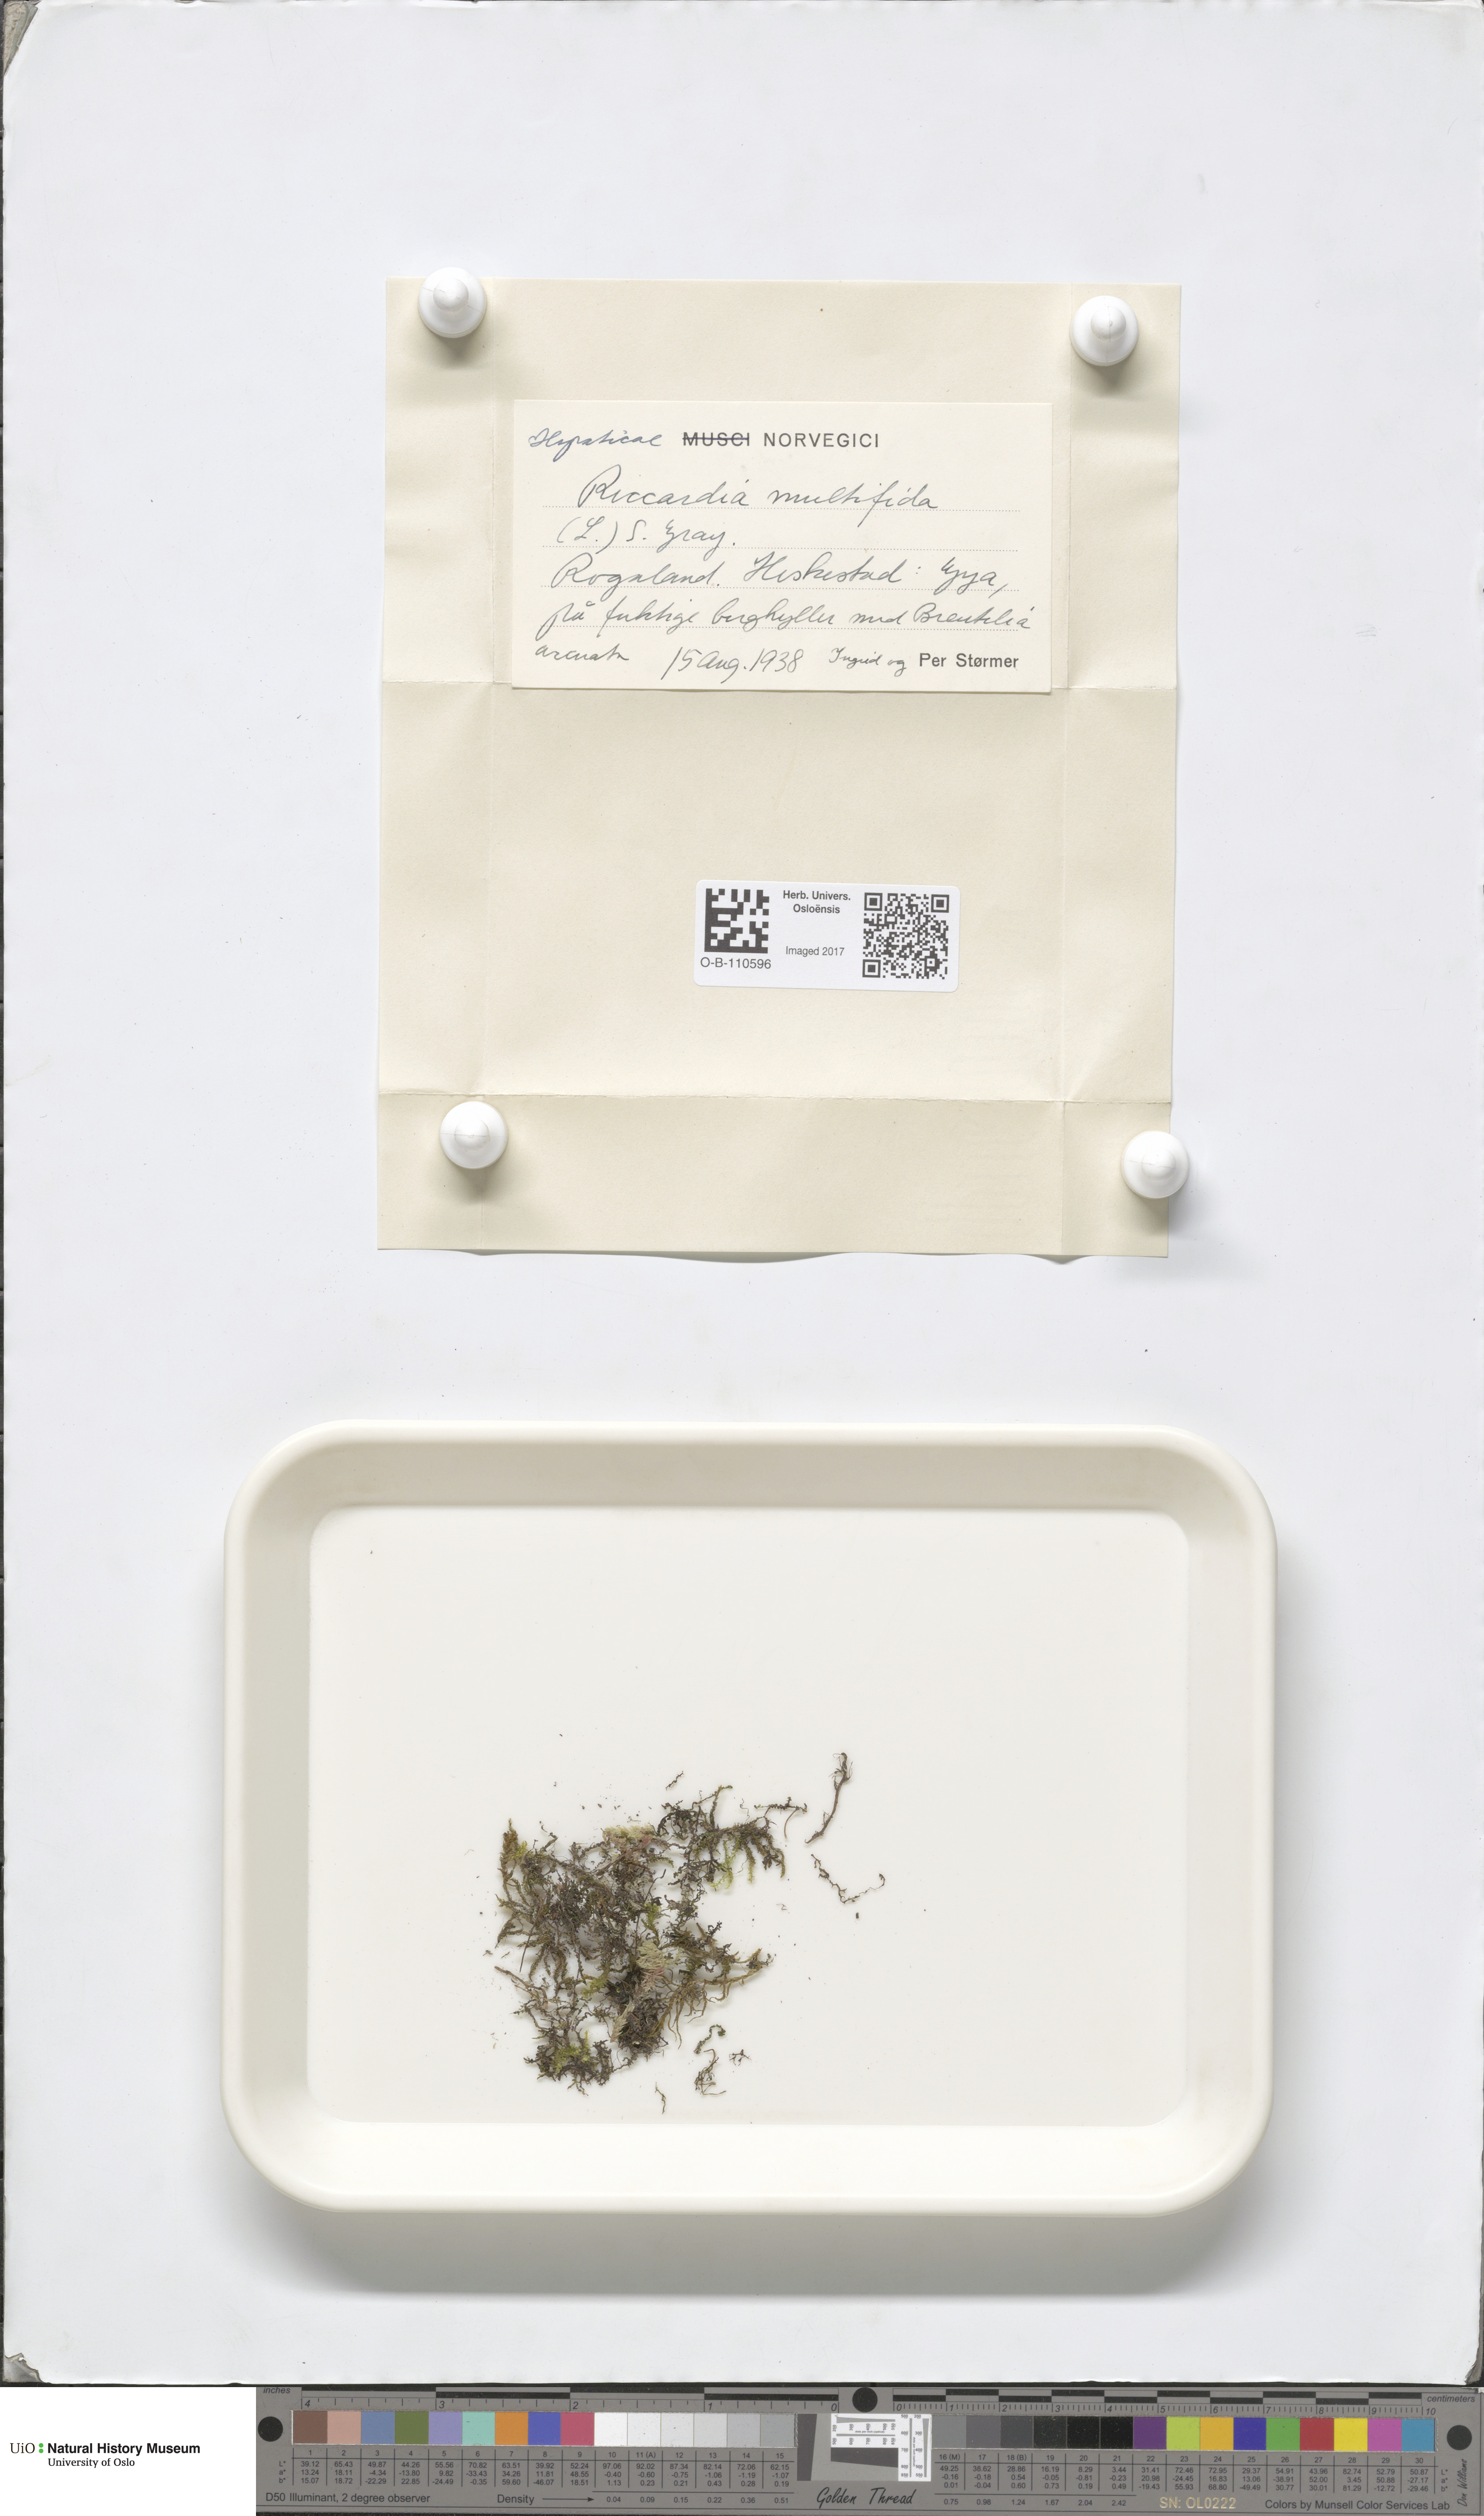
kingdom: Plantae
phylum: Marchantiophyta
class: Jungermanniopsida
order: Metzgeriales
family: Aneuraceae
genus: Riccardia
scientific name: Riccardia multifida
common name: Delicate germanderwort
